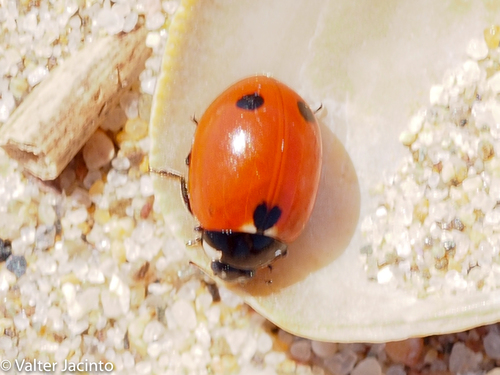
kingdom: Animalia
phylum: Arthropoda
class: Insecta
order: Coleoptera
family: Coccinellidae
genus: Coccinella
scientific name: Coccinella undecimpunctata
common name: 11-spot ladybird
